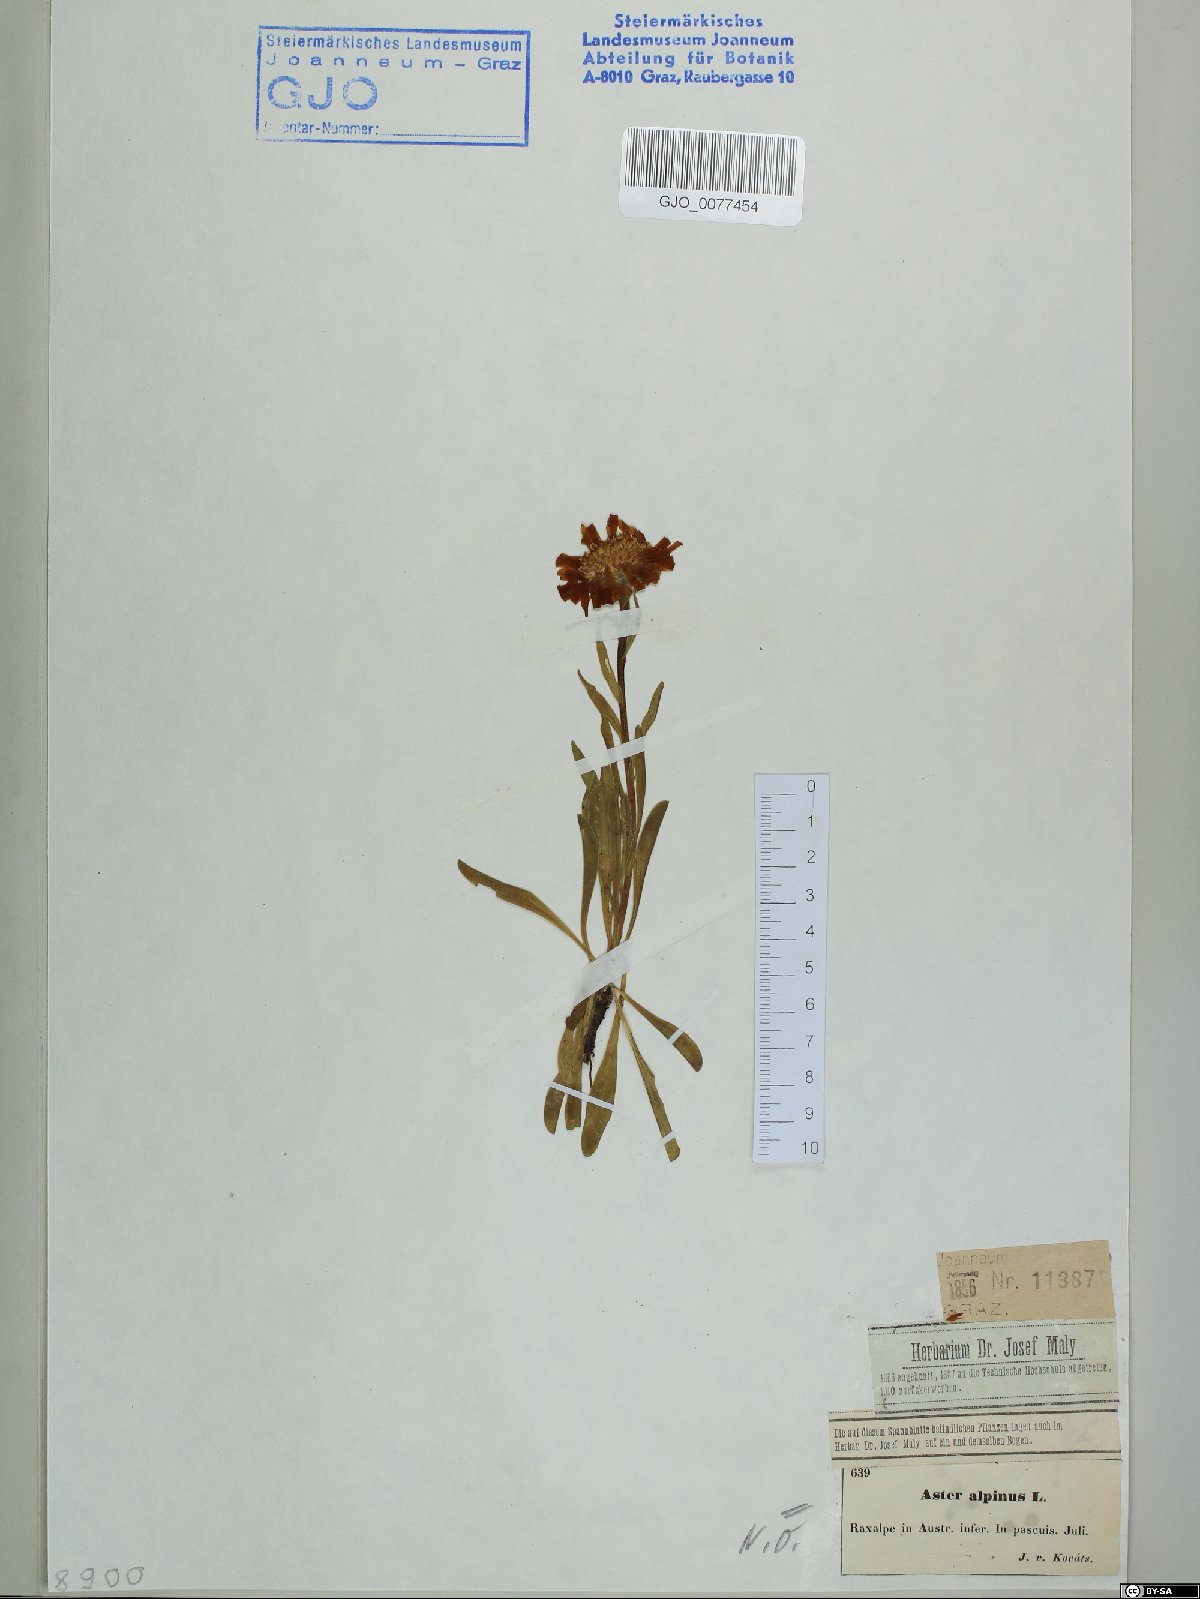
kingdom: Plantae
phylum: Tracheophyta
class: Magnoliopsida
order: Asterales
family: Asteraceae
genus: Aster
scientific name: Aster alpinus
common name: Alpine aster
